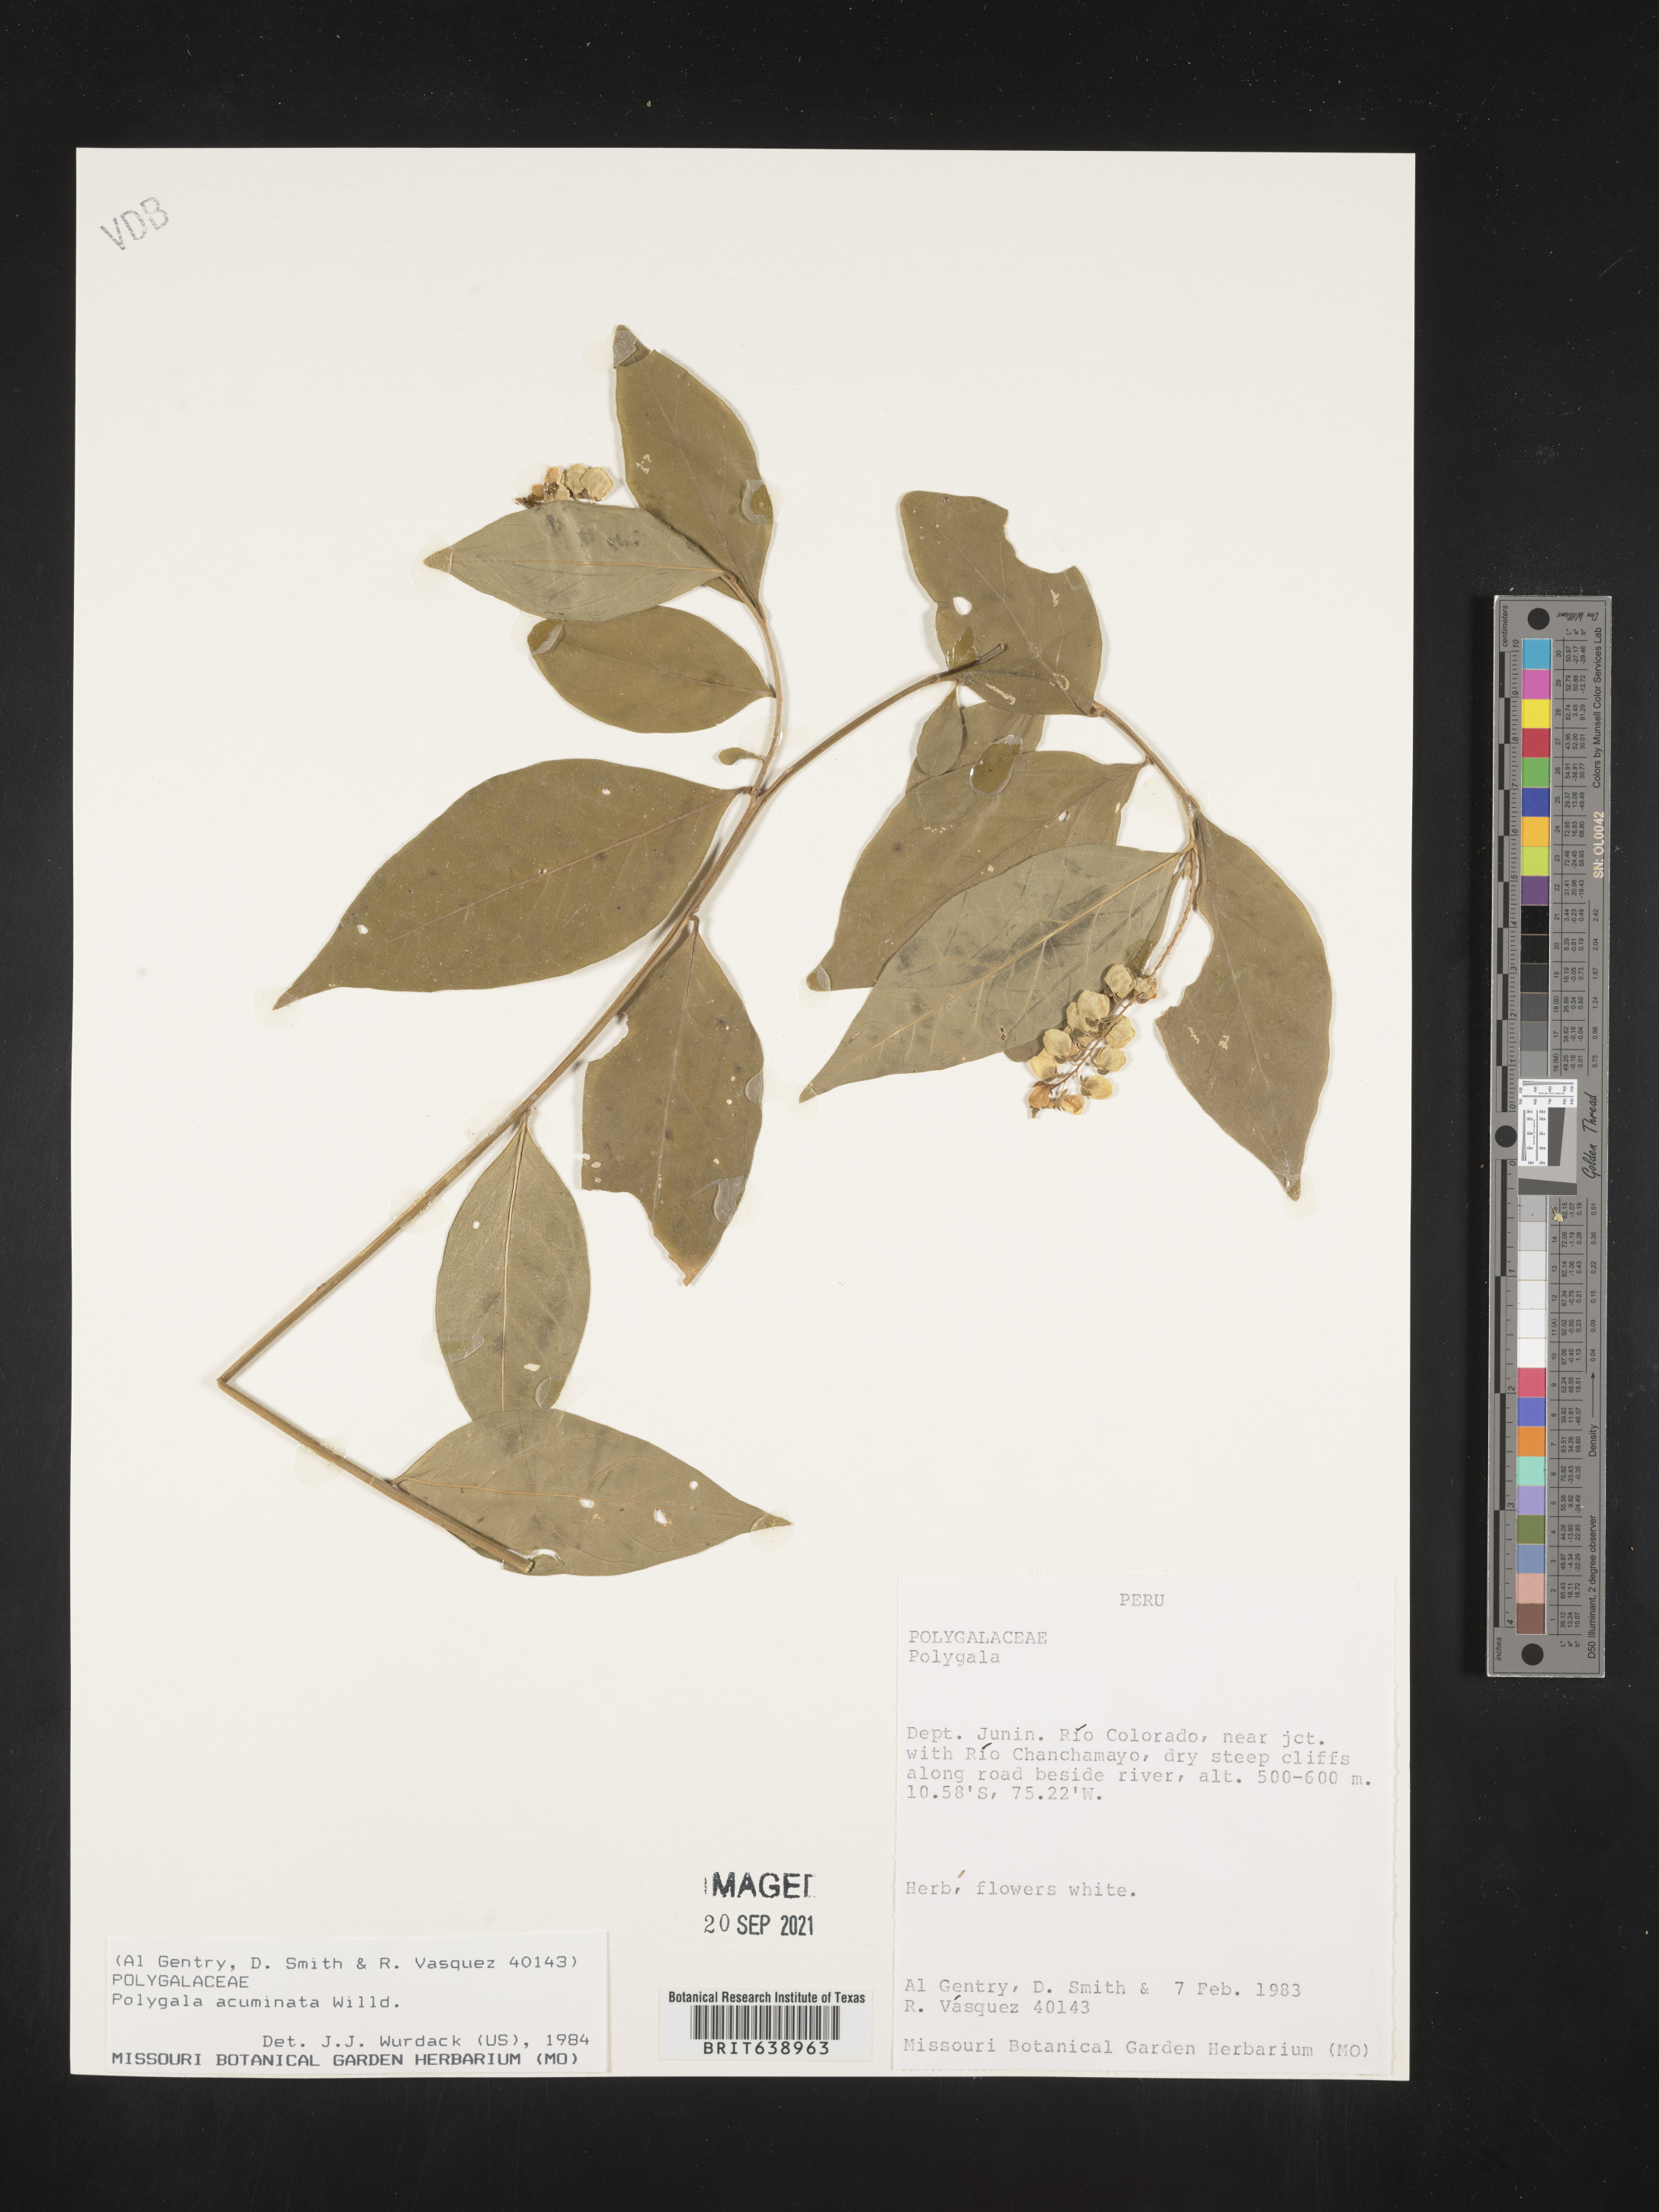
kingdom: Plantae
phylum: Tracheophyta
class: Magnoliopsida
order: Fabales
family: Polygalaceae
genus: Polygala
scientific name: Polygala
